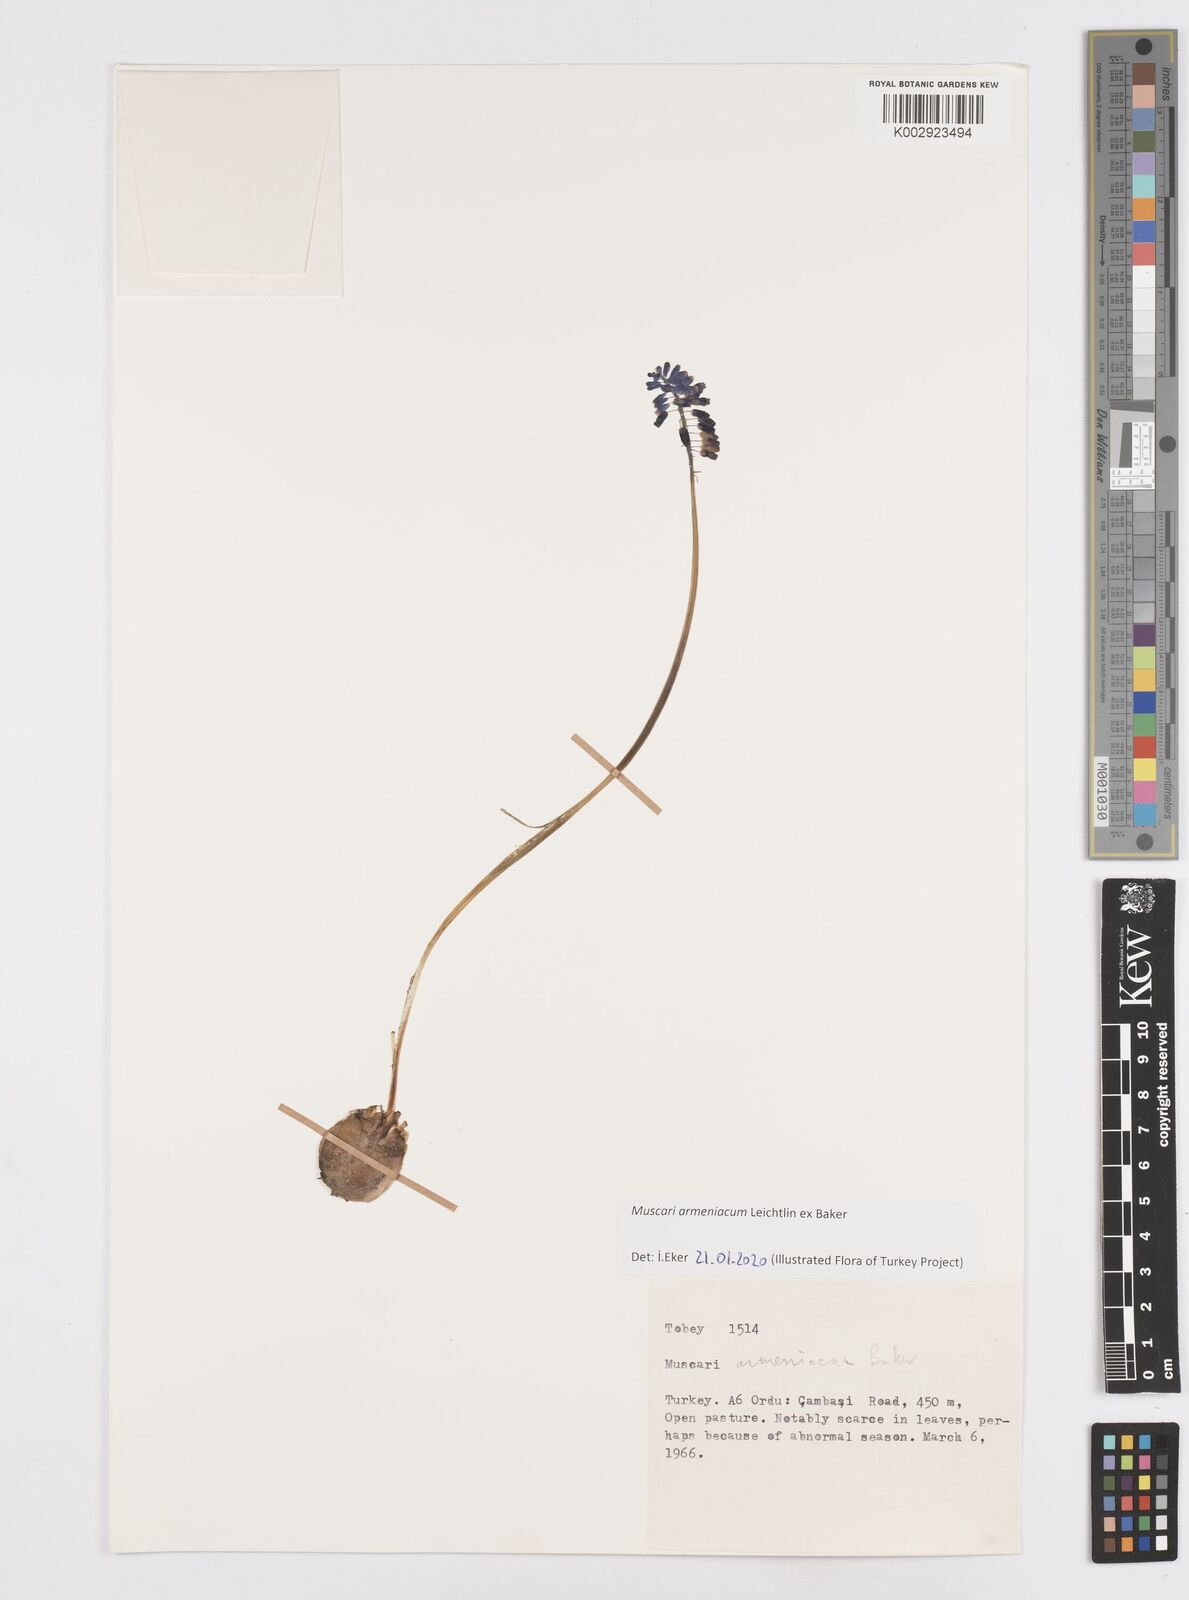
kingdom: Plantae
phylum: Tracheophyta
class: Liliopsida
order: Asparagales
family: Asparagaceae
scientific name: Asparagaceae
